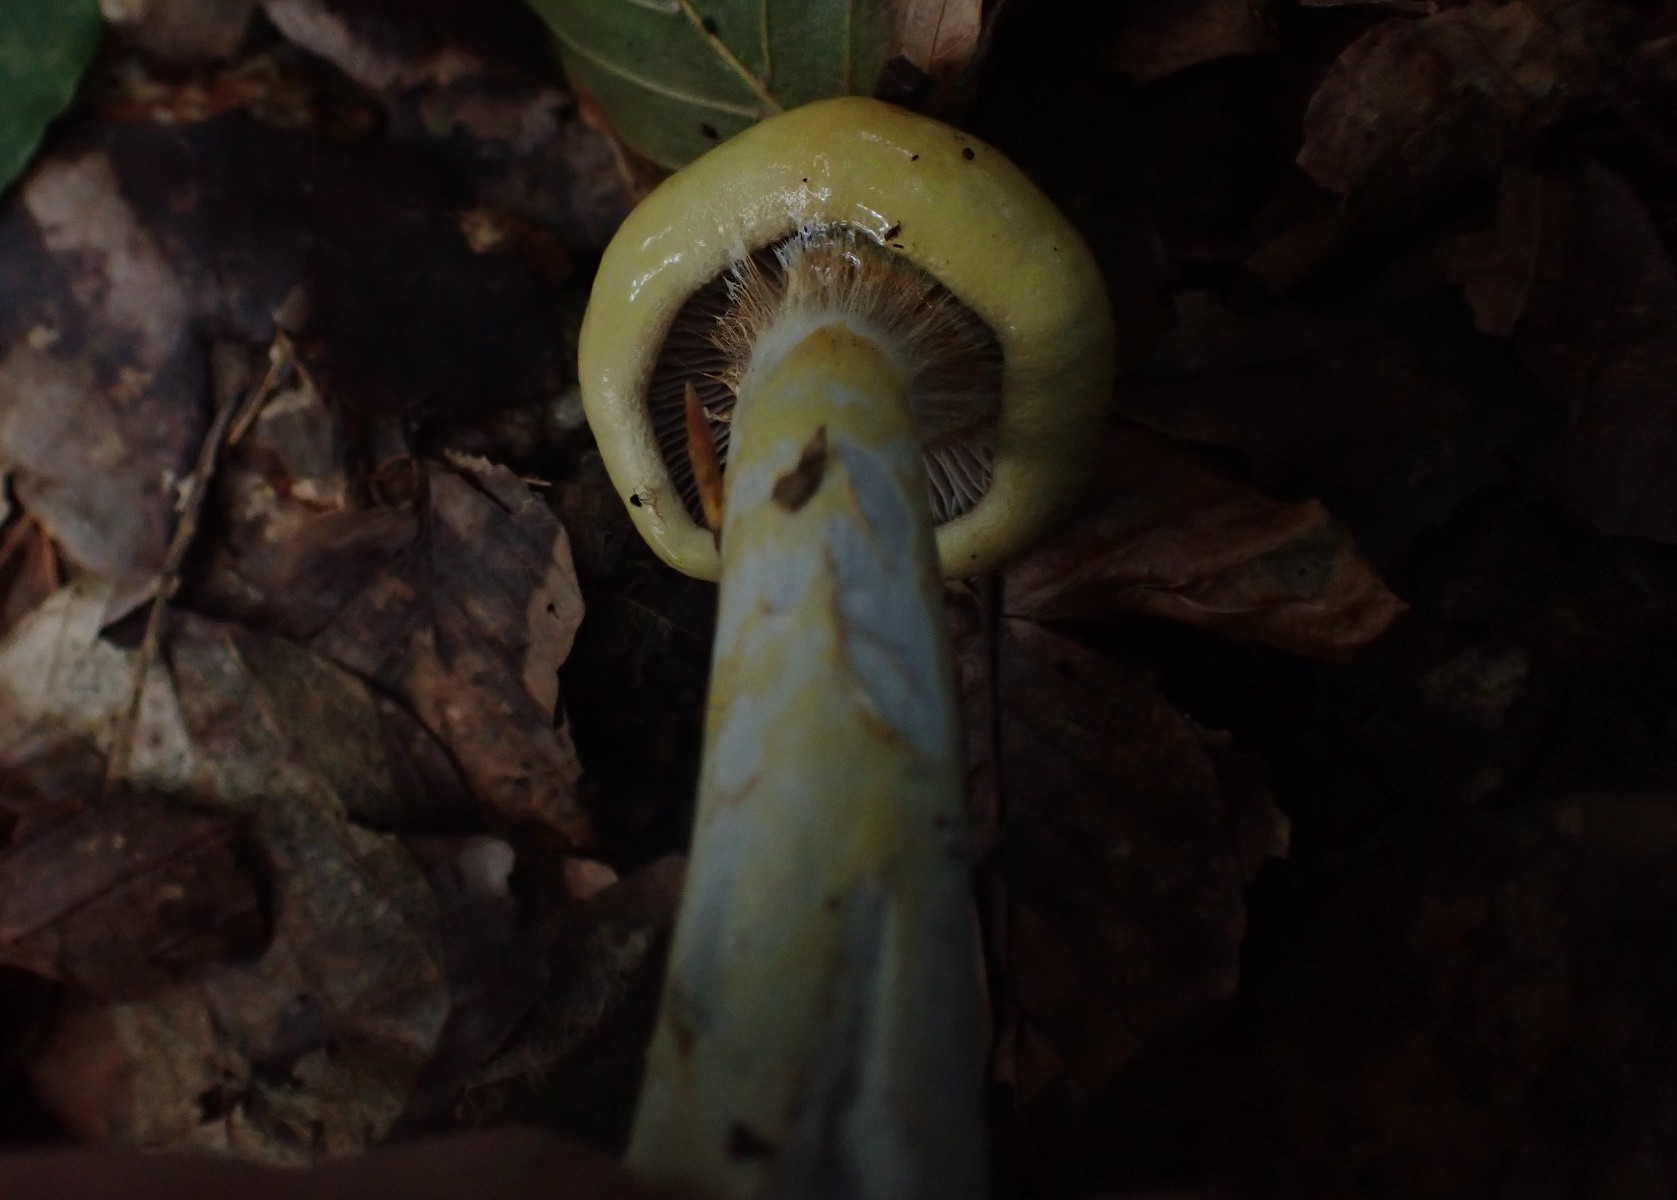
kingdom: Fungi
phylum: Basidiomycota
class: Agaricomycetes
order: Agaricales
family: Cortinariaceae
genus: Cortinarius
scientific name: Cortinarius
